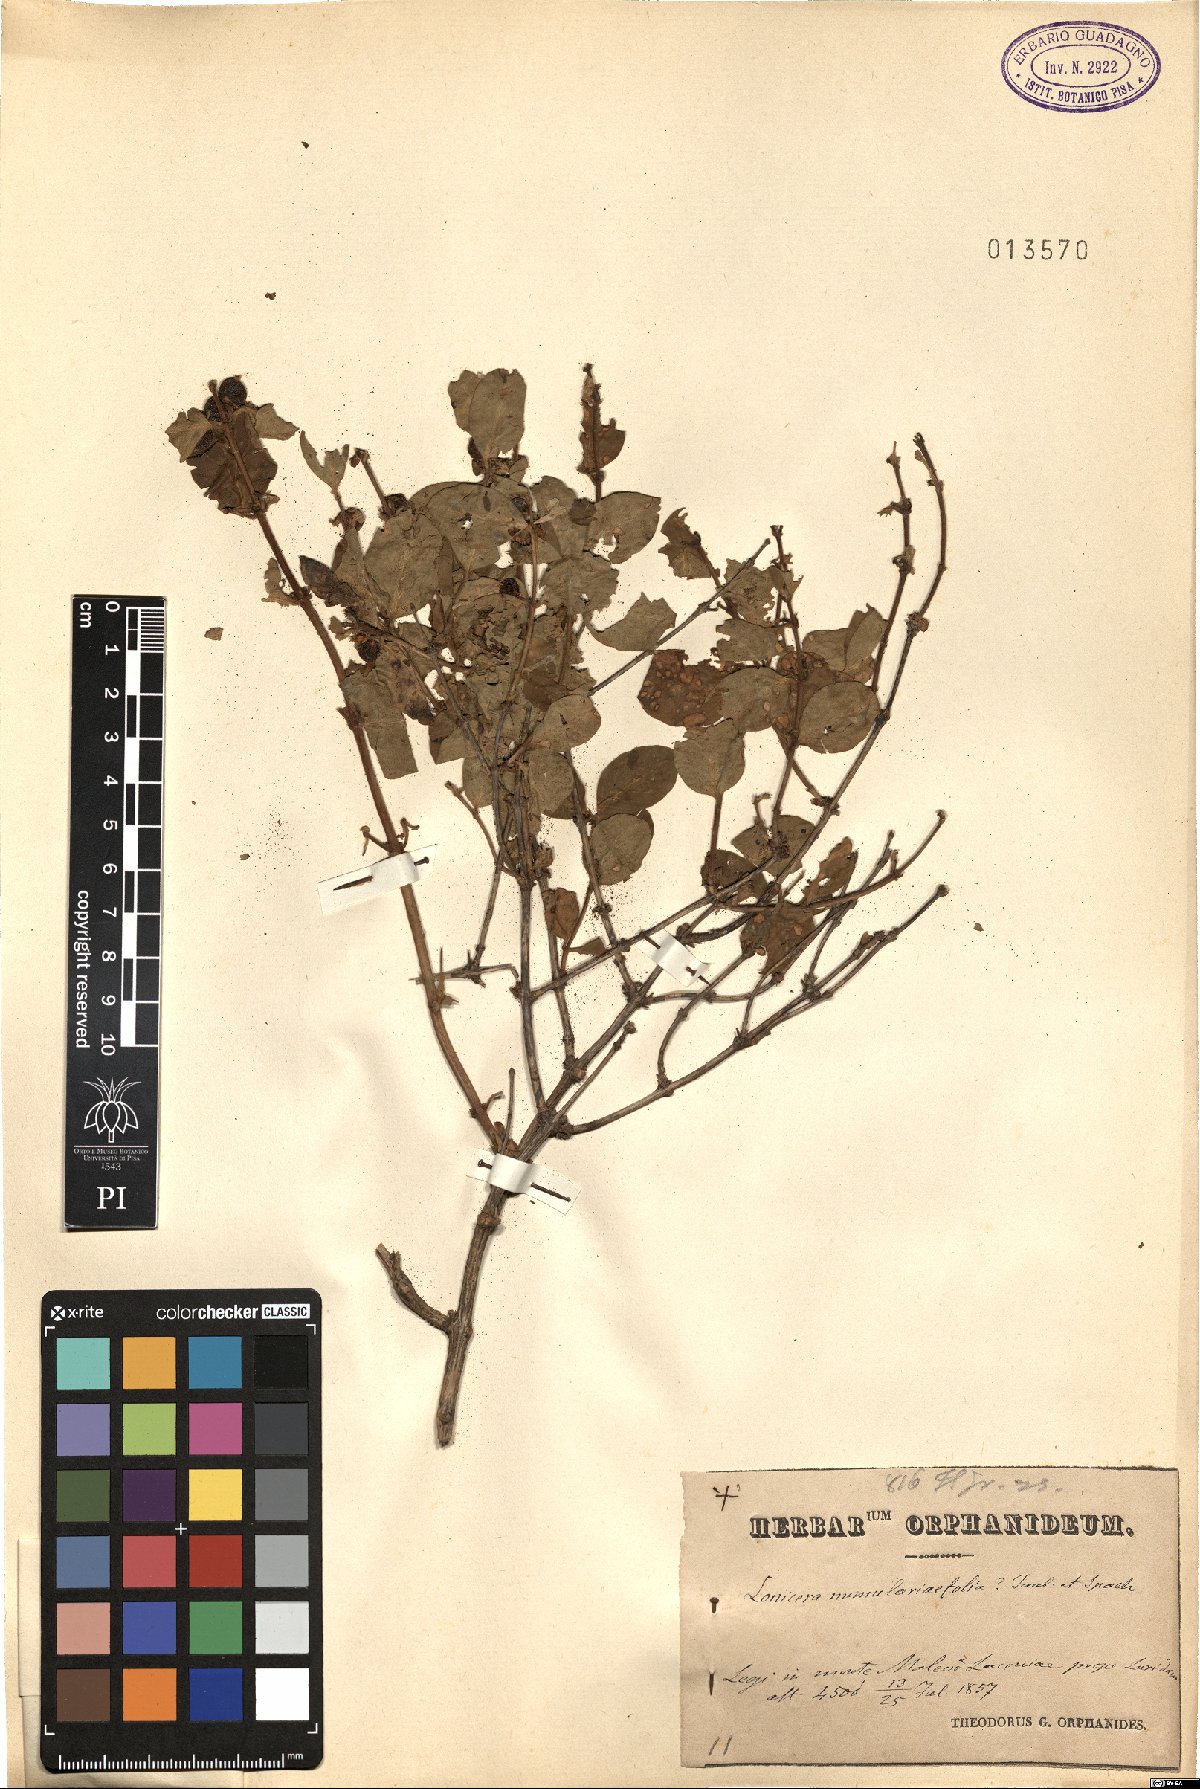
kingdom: Plantae
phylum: Tracheophyta
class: Magnoliopsida
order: Dipsacales
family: Caprifoliaceae
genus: Lonicera
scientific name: Lonicera nummulariifolia
